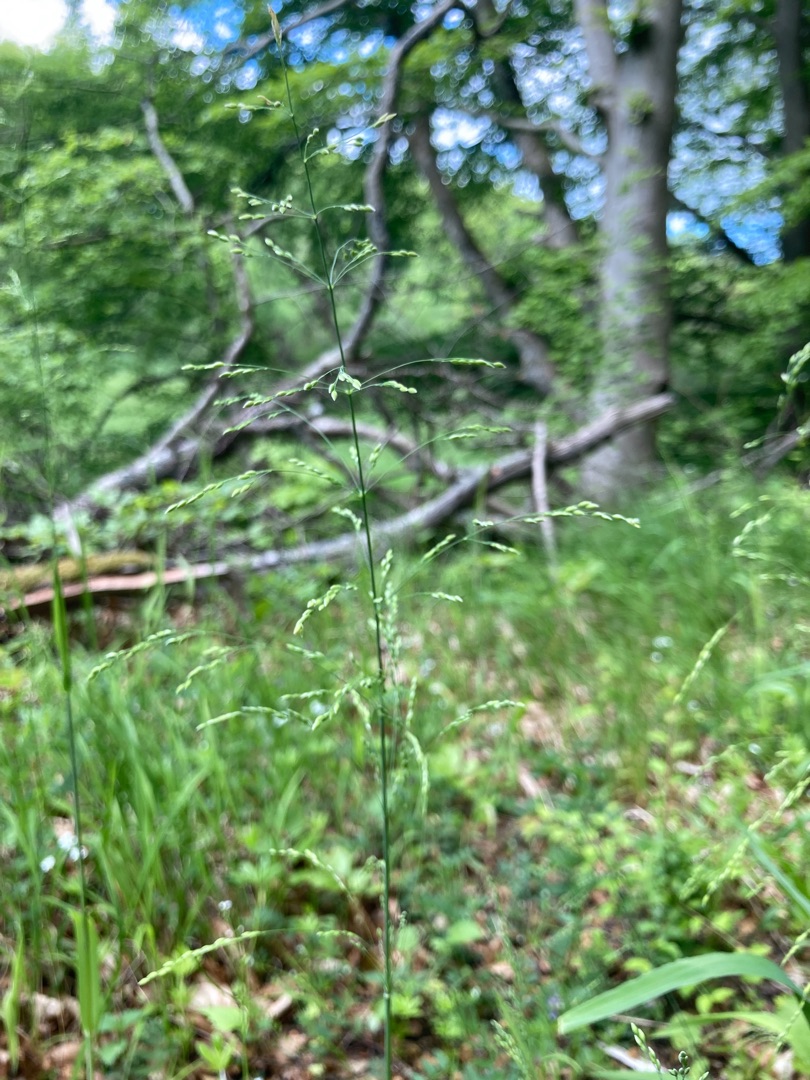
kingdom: Plantae
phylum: Tracheophyta
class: Liliopsida
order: Poales
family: Poaceae
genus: Milium
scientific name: Milium effusum
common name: Miliegræs
